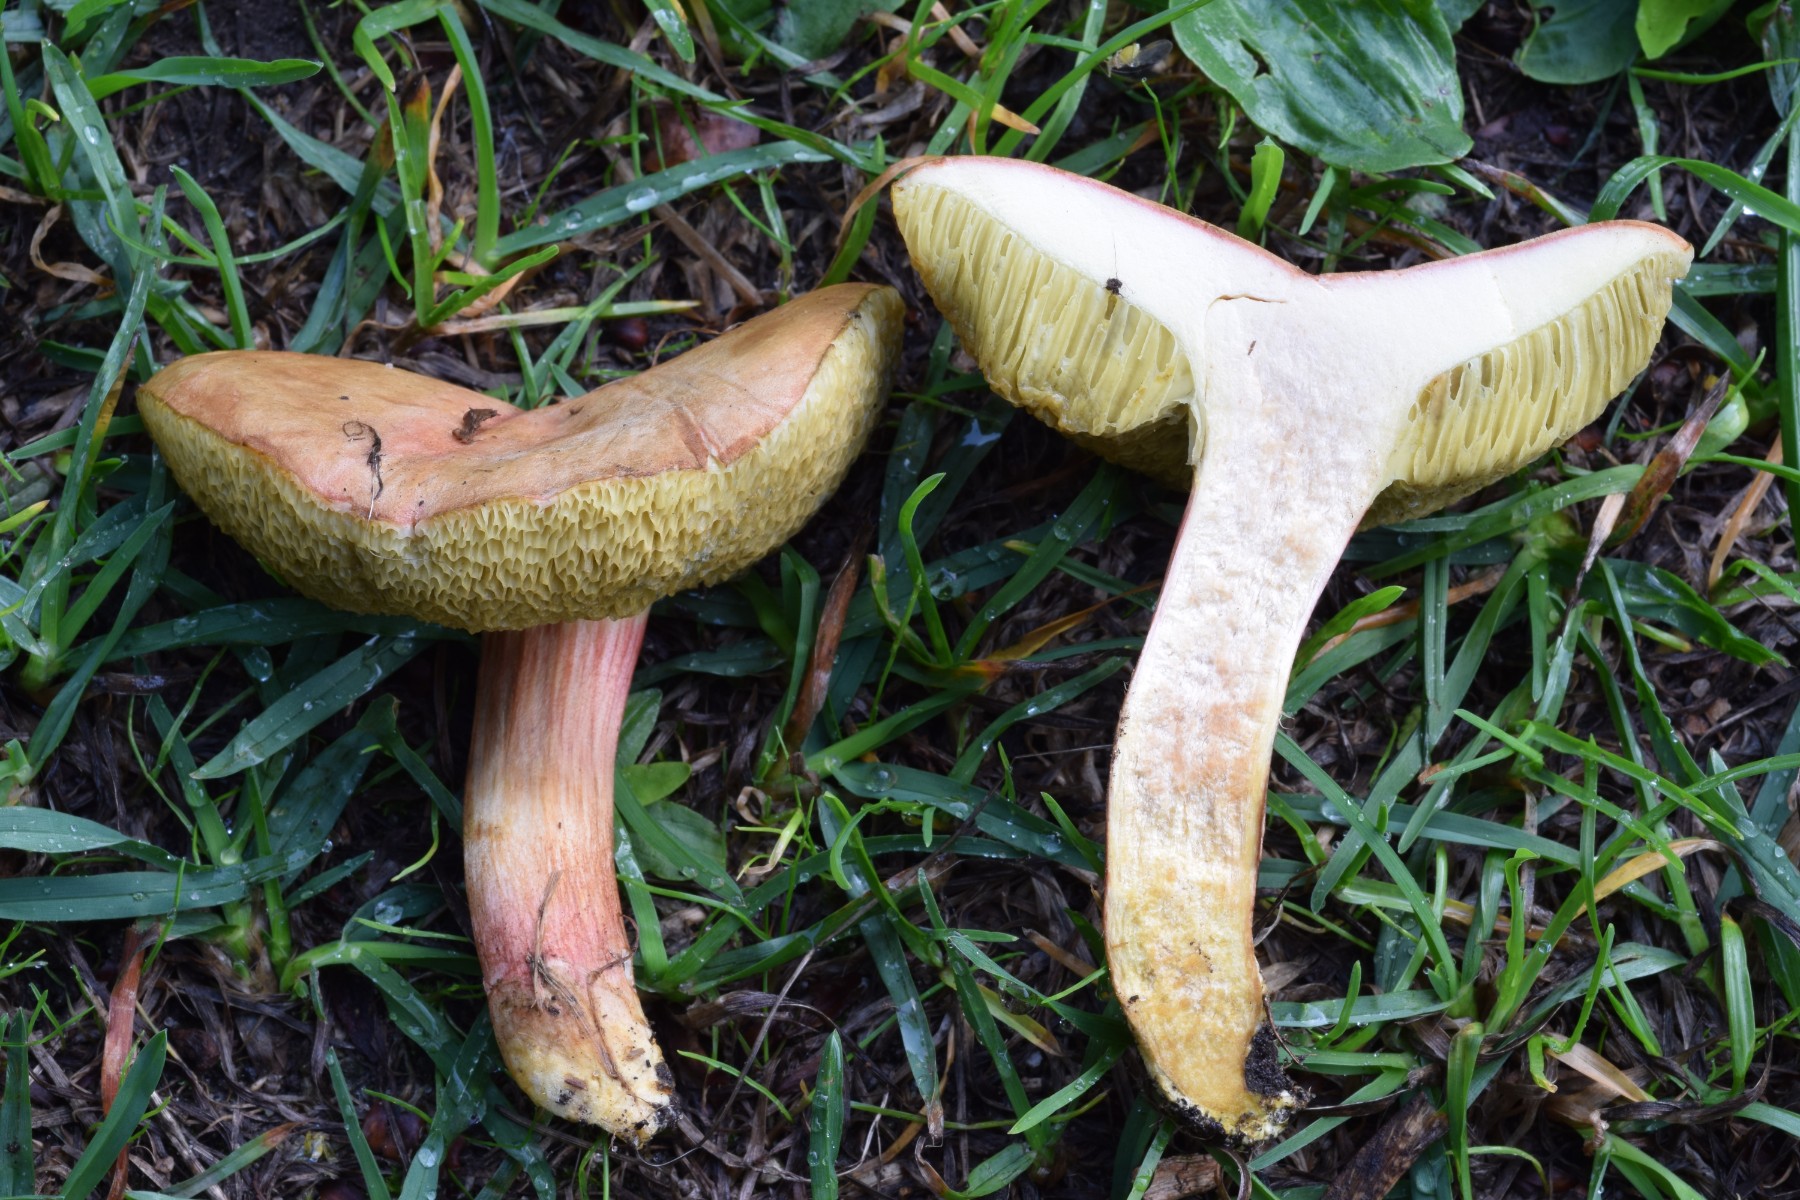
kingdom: Fungi
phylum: Basidiomycota
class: Agaricomycetes
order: Boletales
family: Boletaceae
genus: Hortiboletus
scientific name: Hortiboletus engelii
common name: fersken-rørhat
